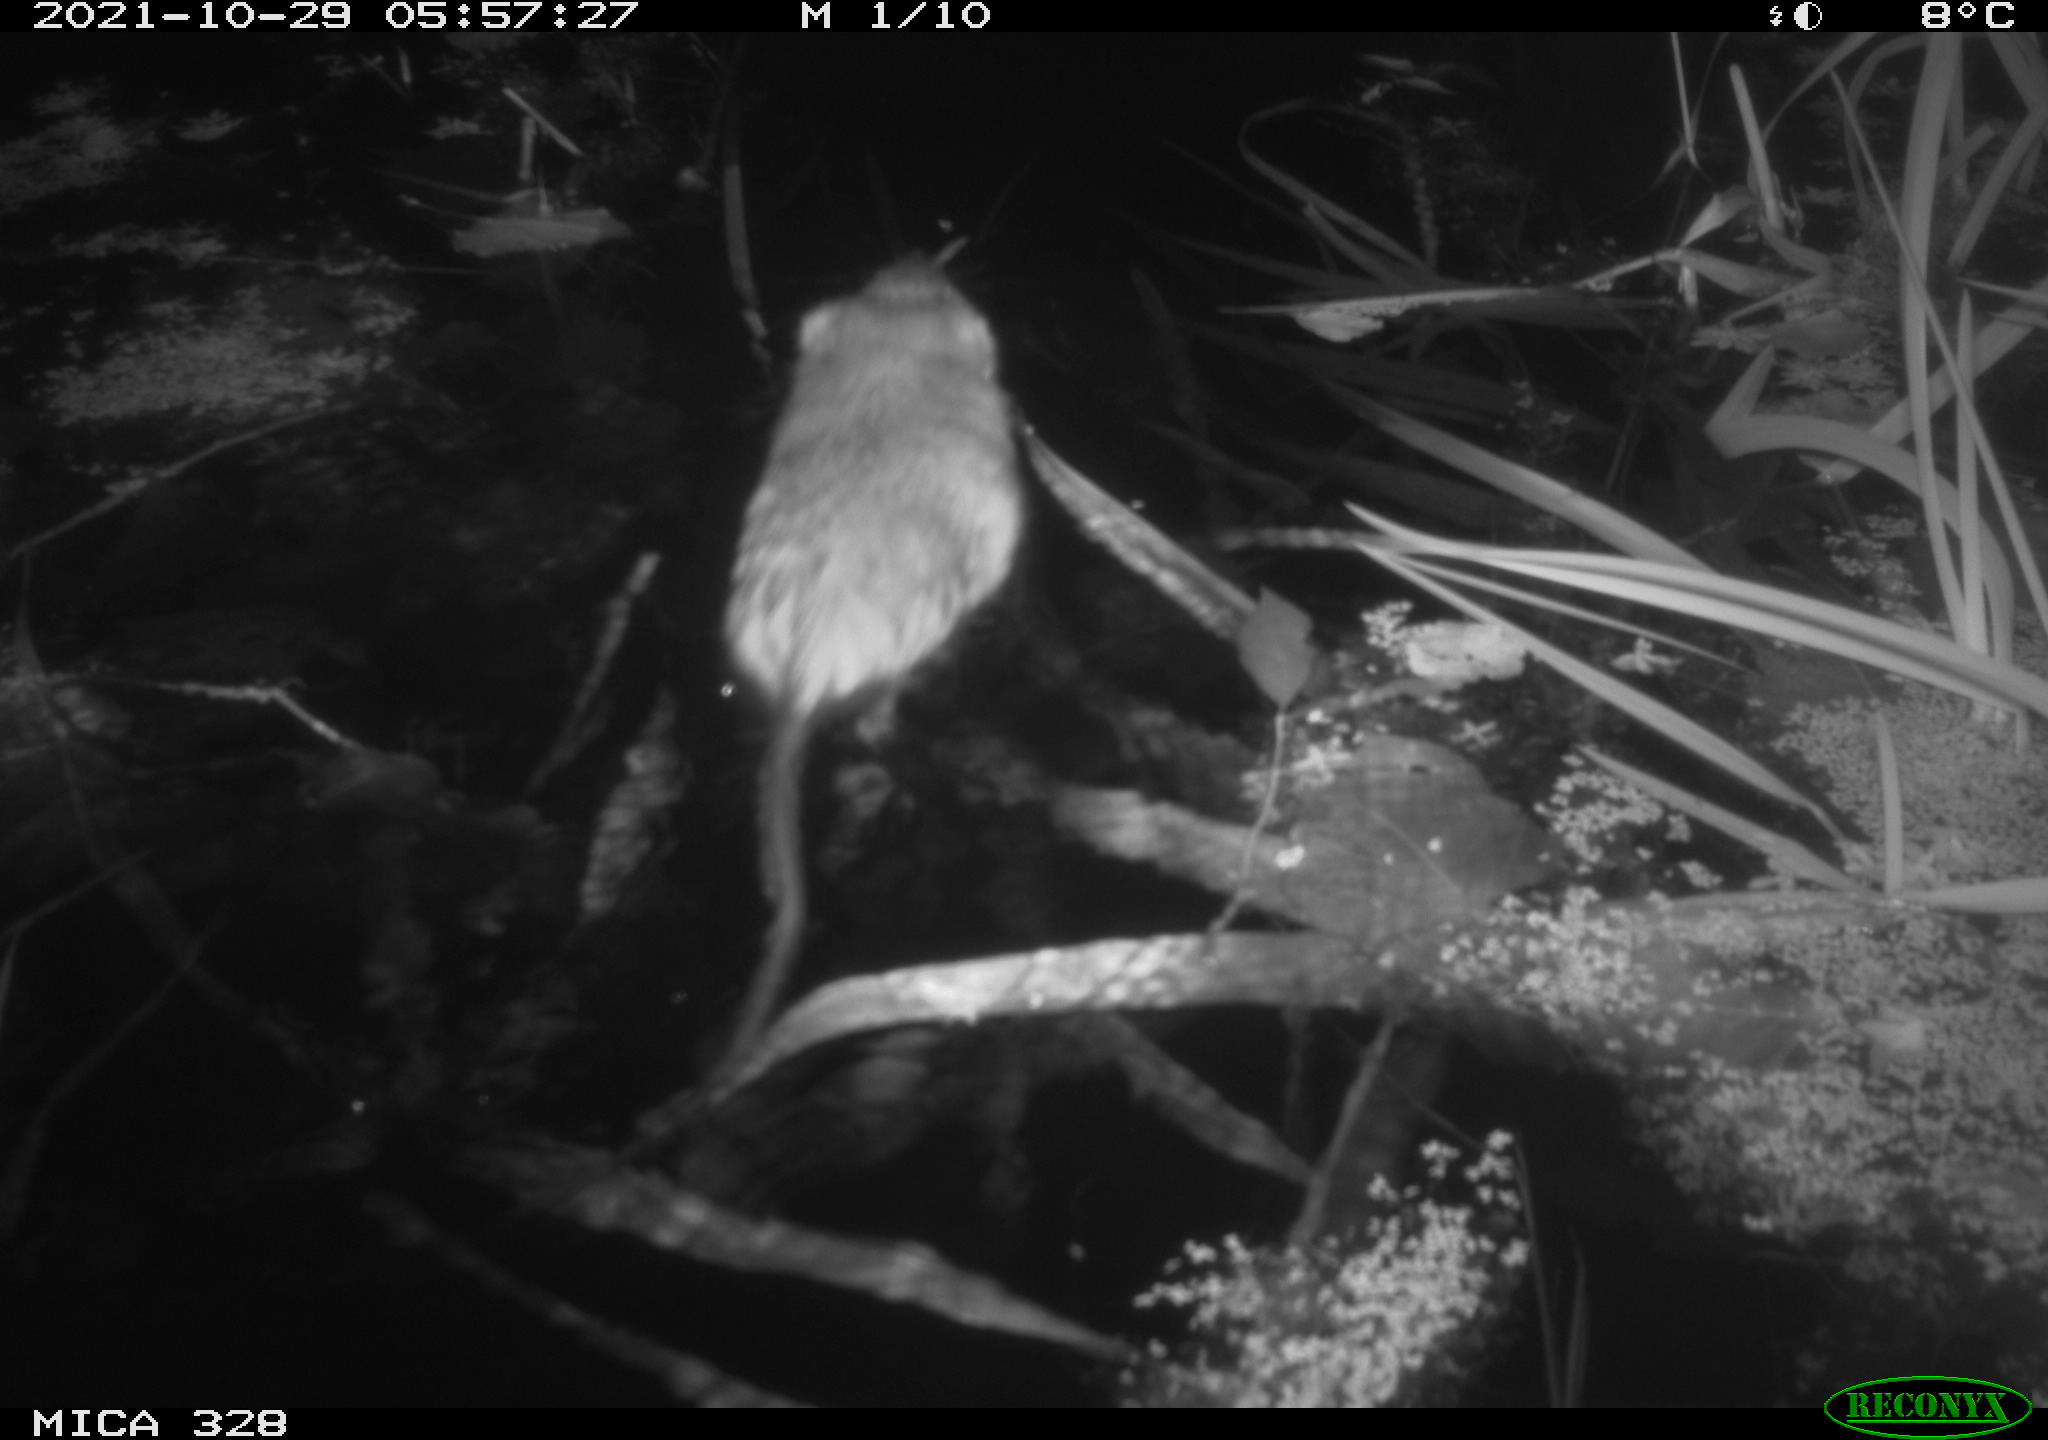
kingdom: Animalia
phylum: Chordata
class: Mammalia
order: Rodentia
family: Cricetidae
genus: Ondatra
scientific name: Ondatra zibethicus
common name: Muskrat
